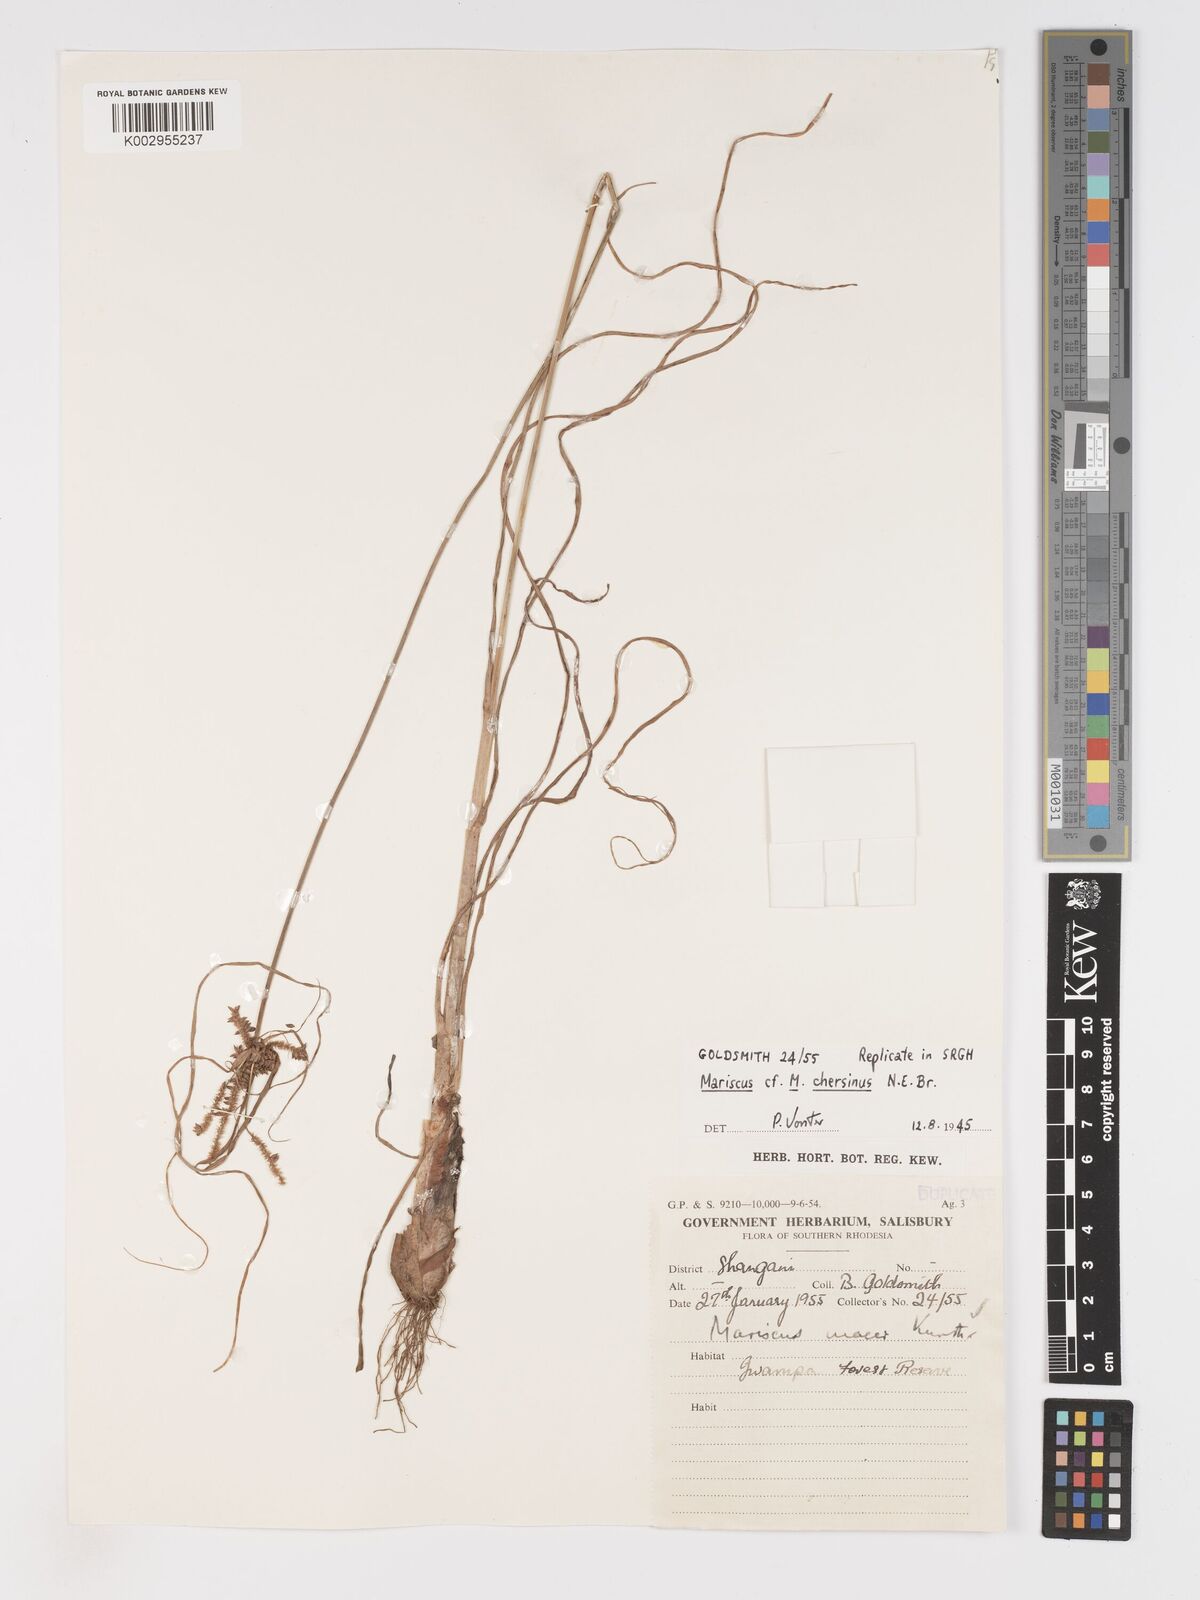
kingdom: Plantae
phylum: Tracheophyta
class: Liliopsida
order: Poales
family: Cyperaceae
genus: Cyperus
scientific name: Cyperus chersinus
